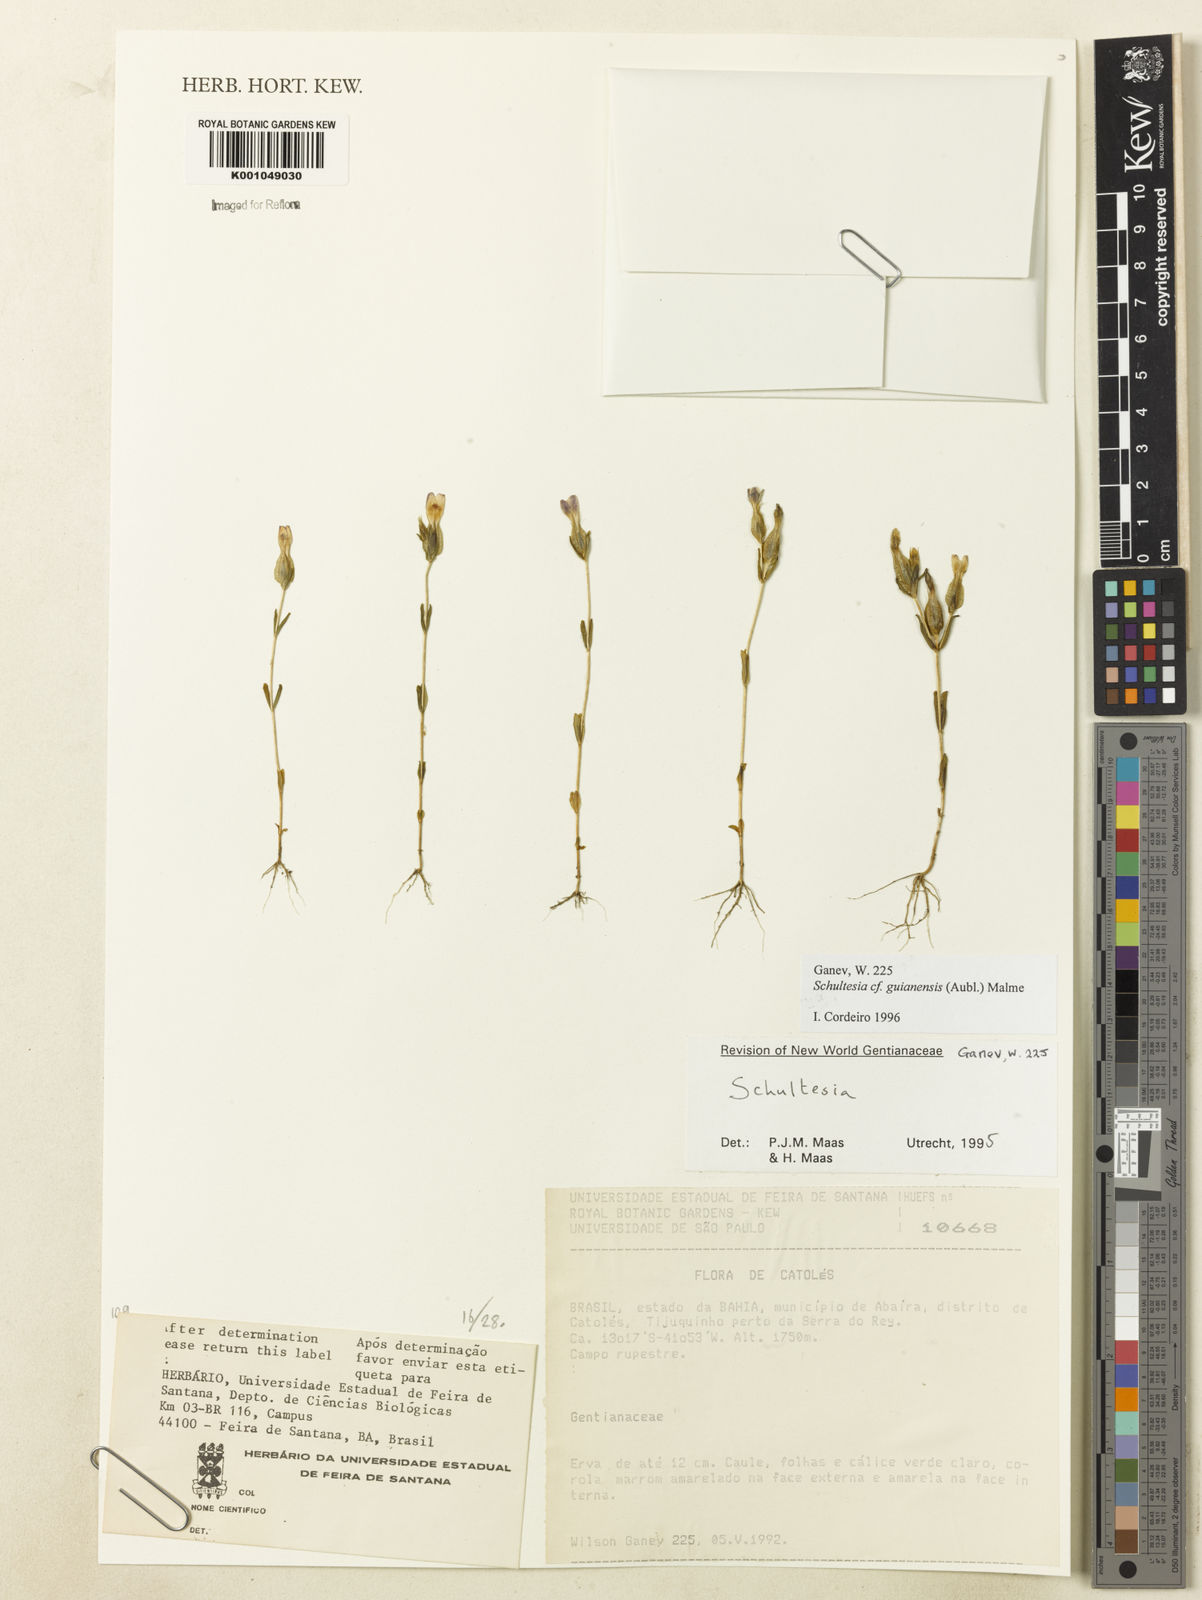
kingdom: Plantae
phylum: Tracheophyta
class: Magnoliopsida
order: Gentianales
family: Gentianaceae
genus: Schultesia
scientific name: Schultesia guianensis
